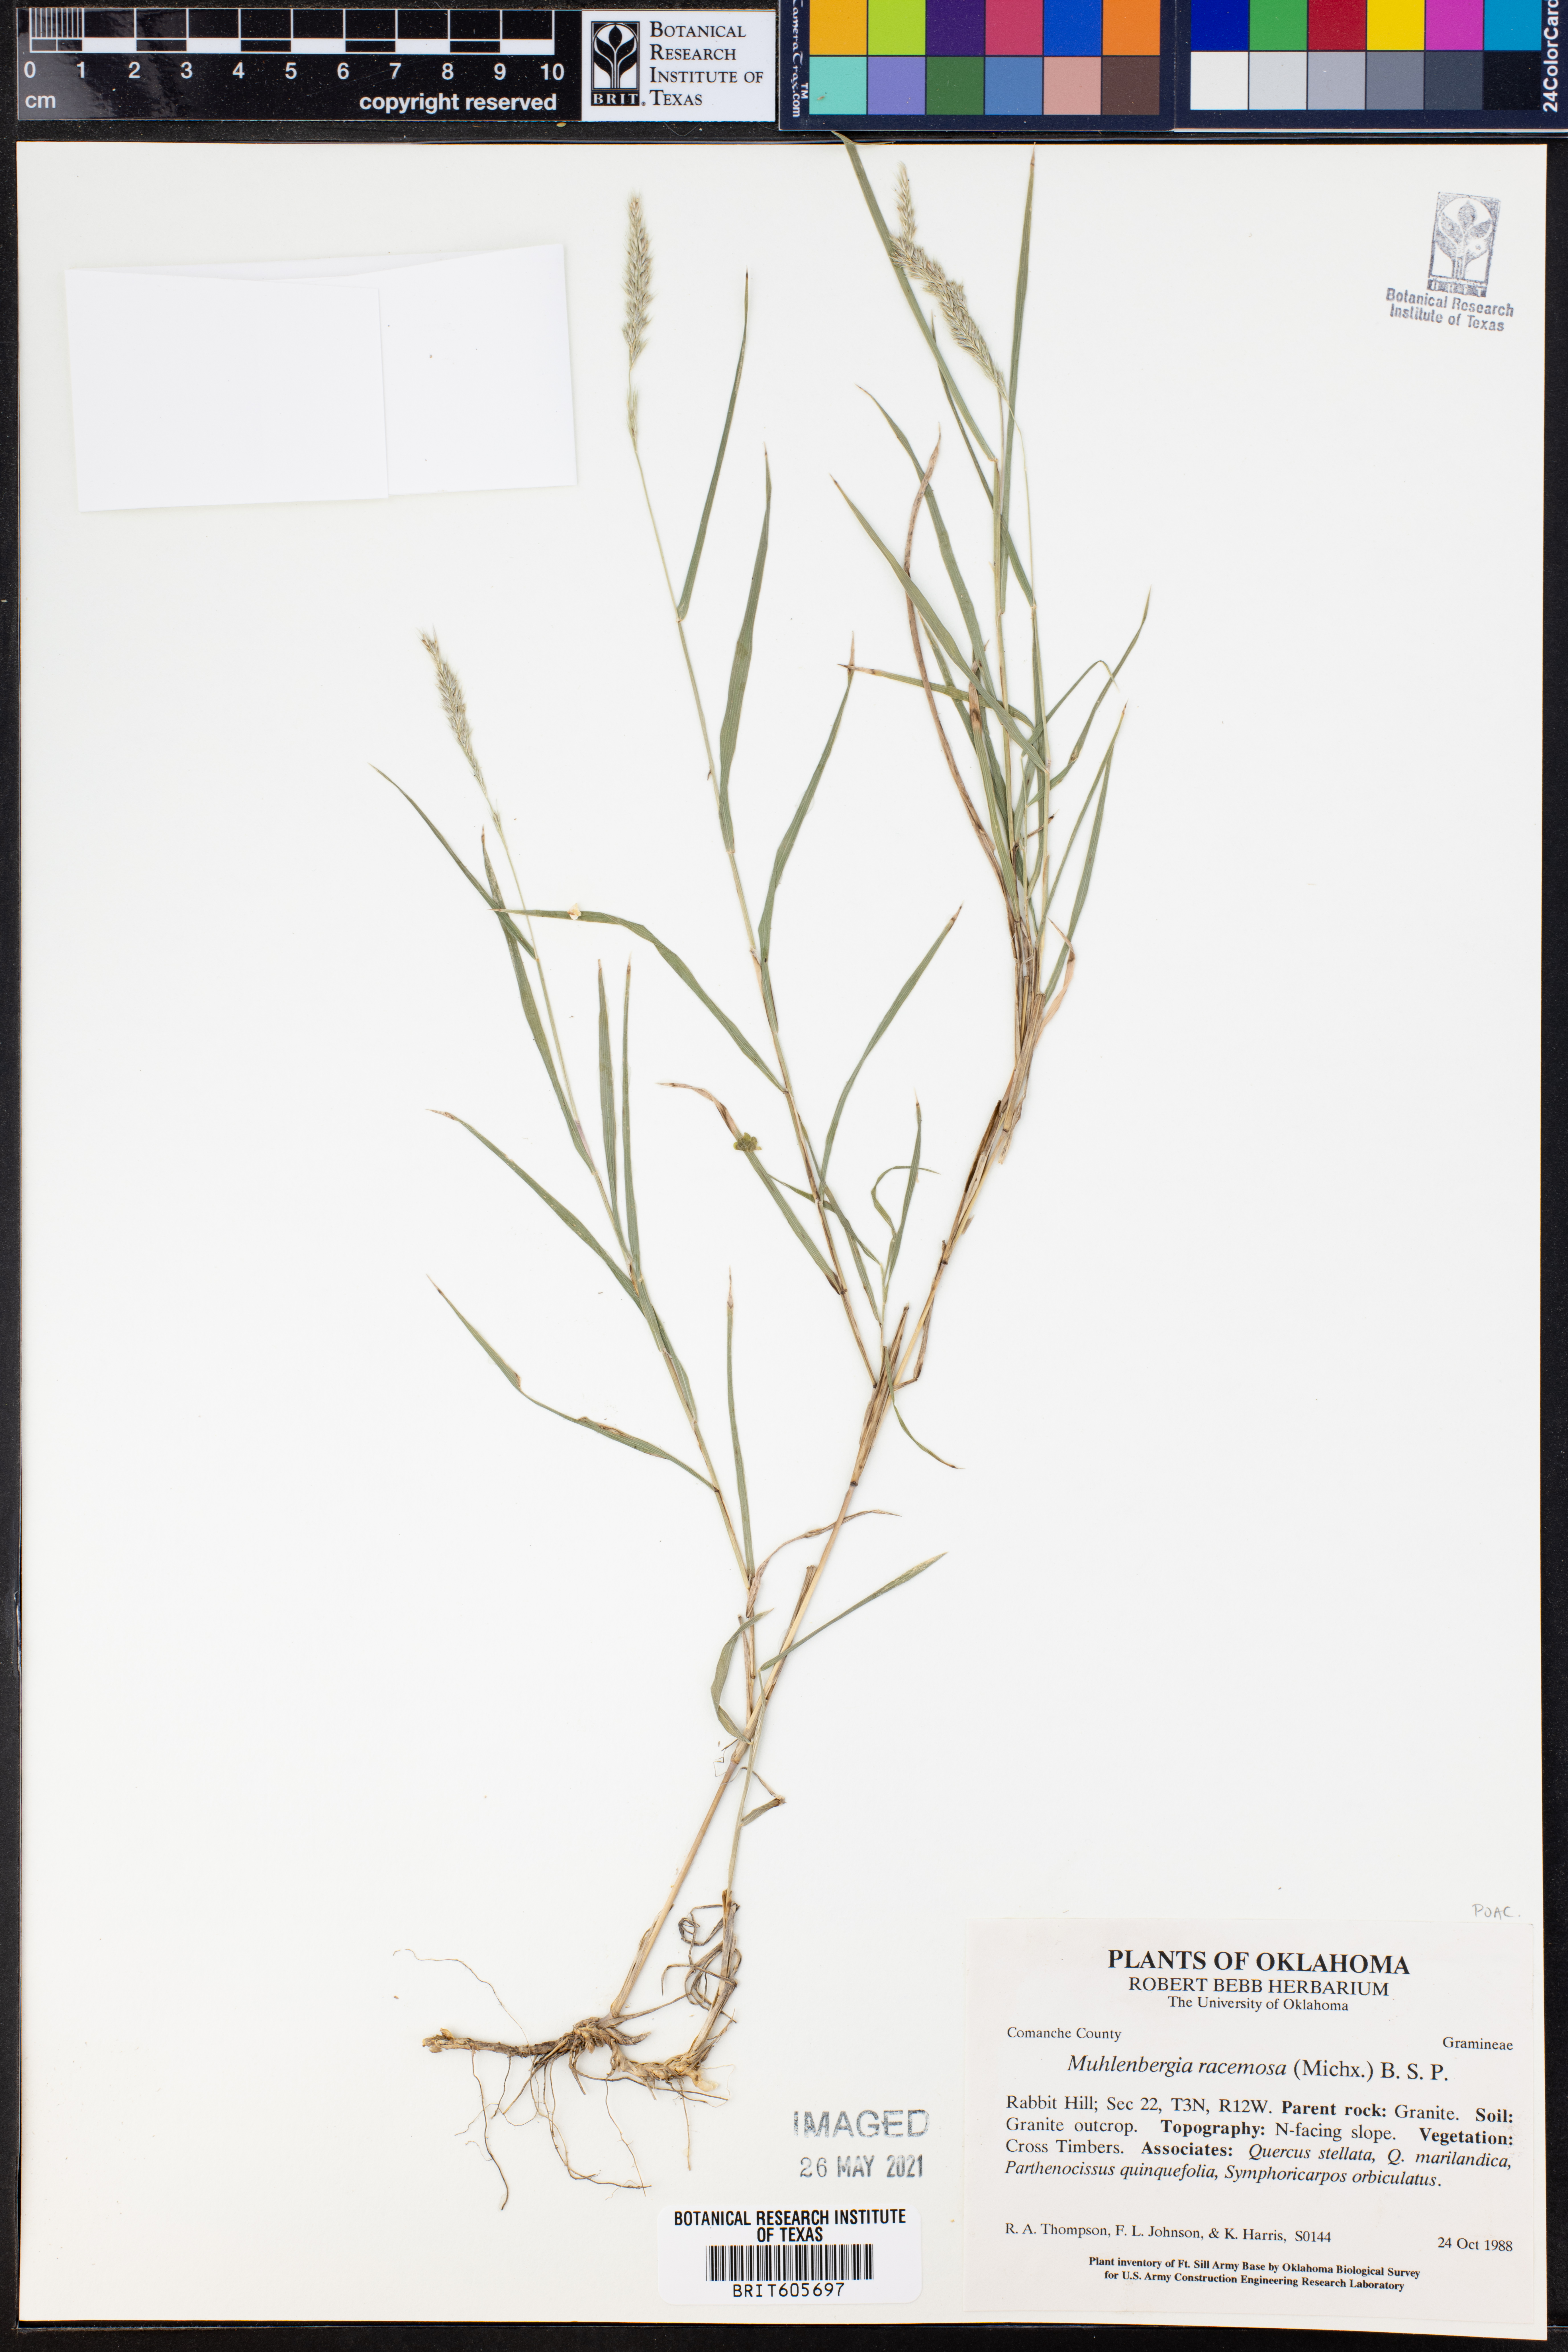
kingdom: Plantae
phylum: Tracheophyta
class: Liliopsida
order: Poales
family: Poaceae
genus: Muhlenbergia
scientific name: Muhlenbergia racemosa
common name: Green muhly
